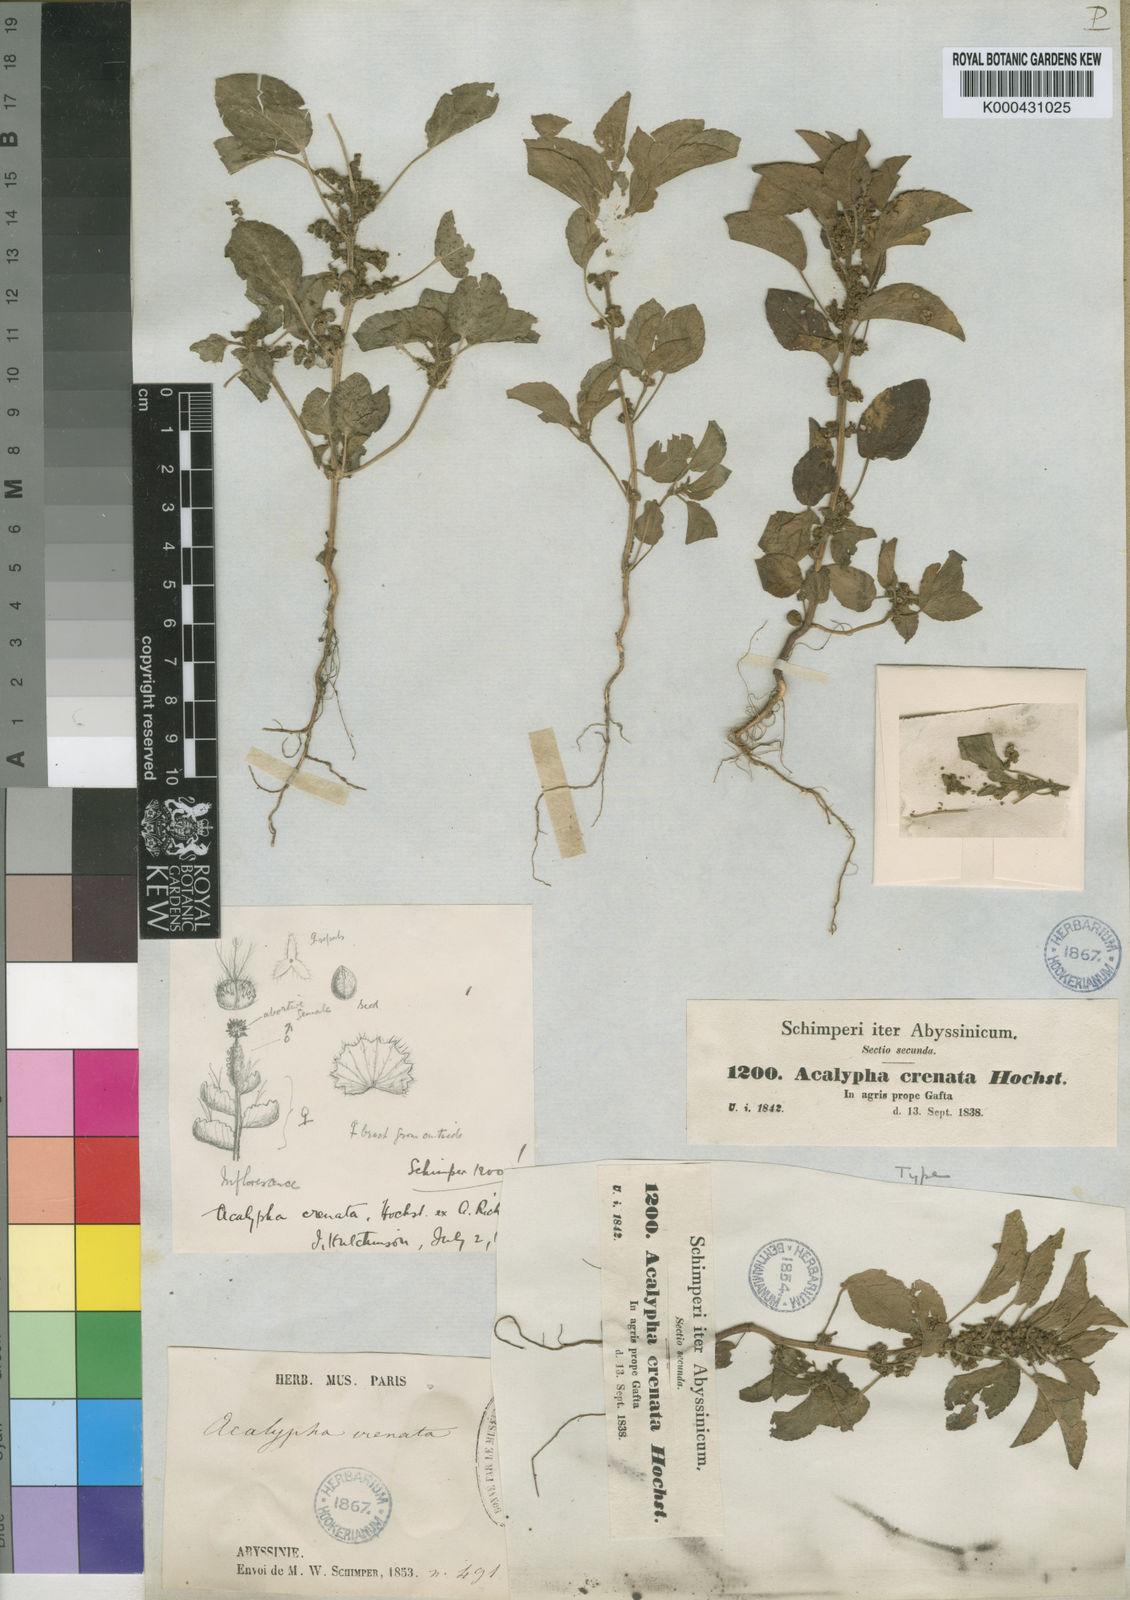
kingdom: Plantae
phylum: Tracheophyta
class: Magnoliopsida
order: Malpighiales
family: Euphorbiaceae
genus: Acalypha
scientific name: Acalypha crenata
